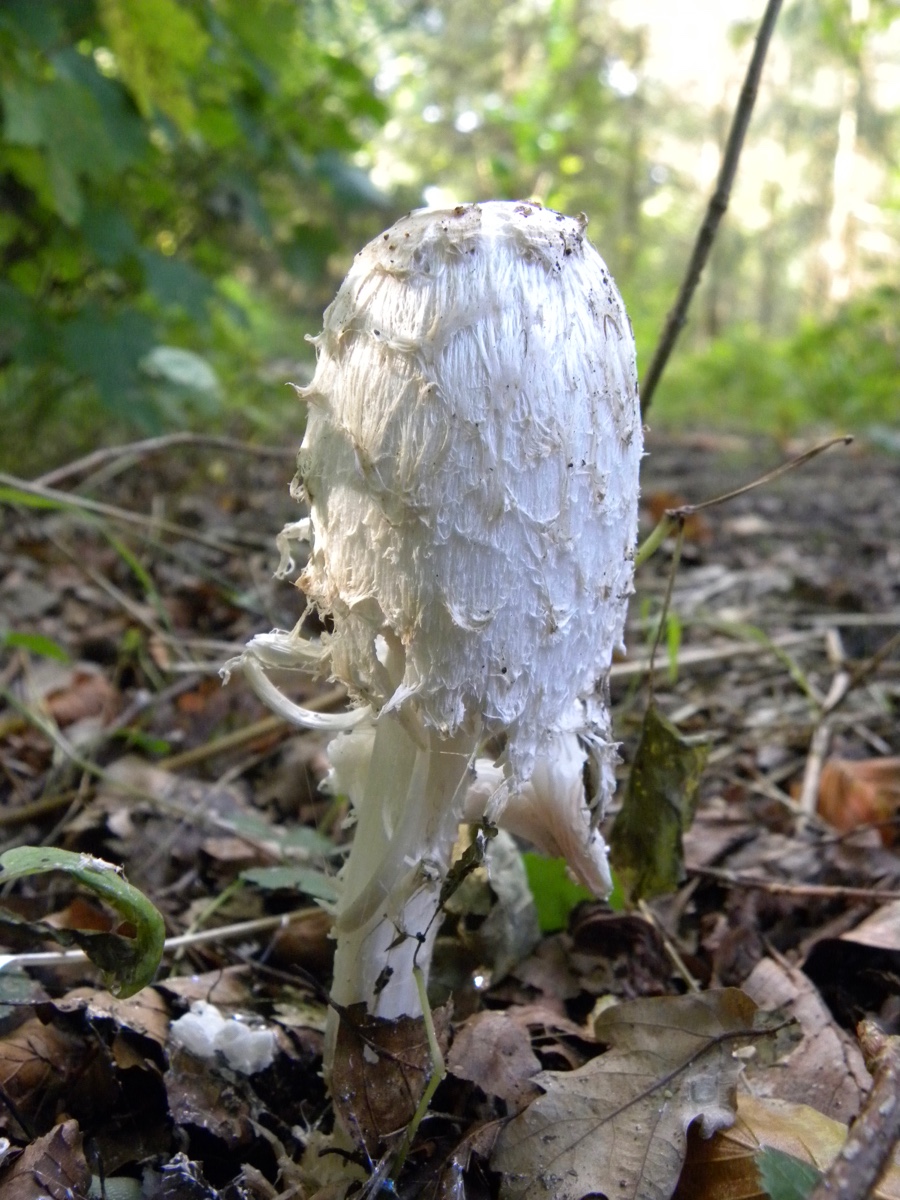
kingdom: Fungi
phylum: Basidiomycota
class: Agaricomycetes
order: Agaricales
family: Agaricaceae
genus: Coprinus
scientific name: Coprinus comatus
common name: stor parykhat
